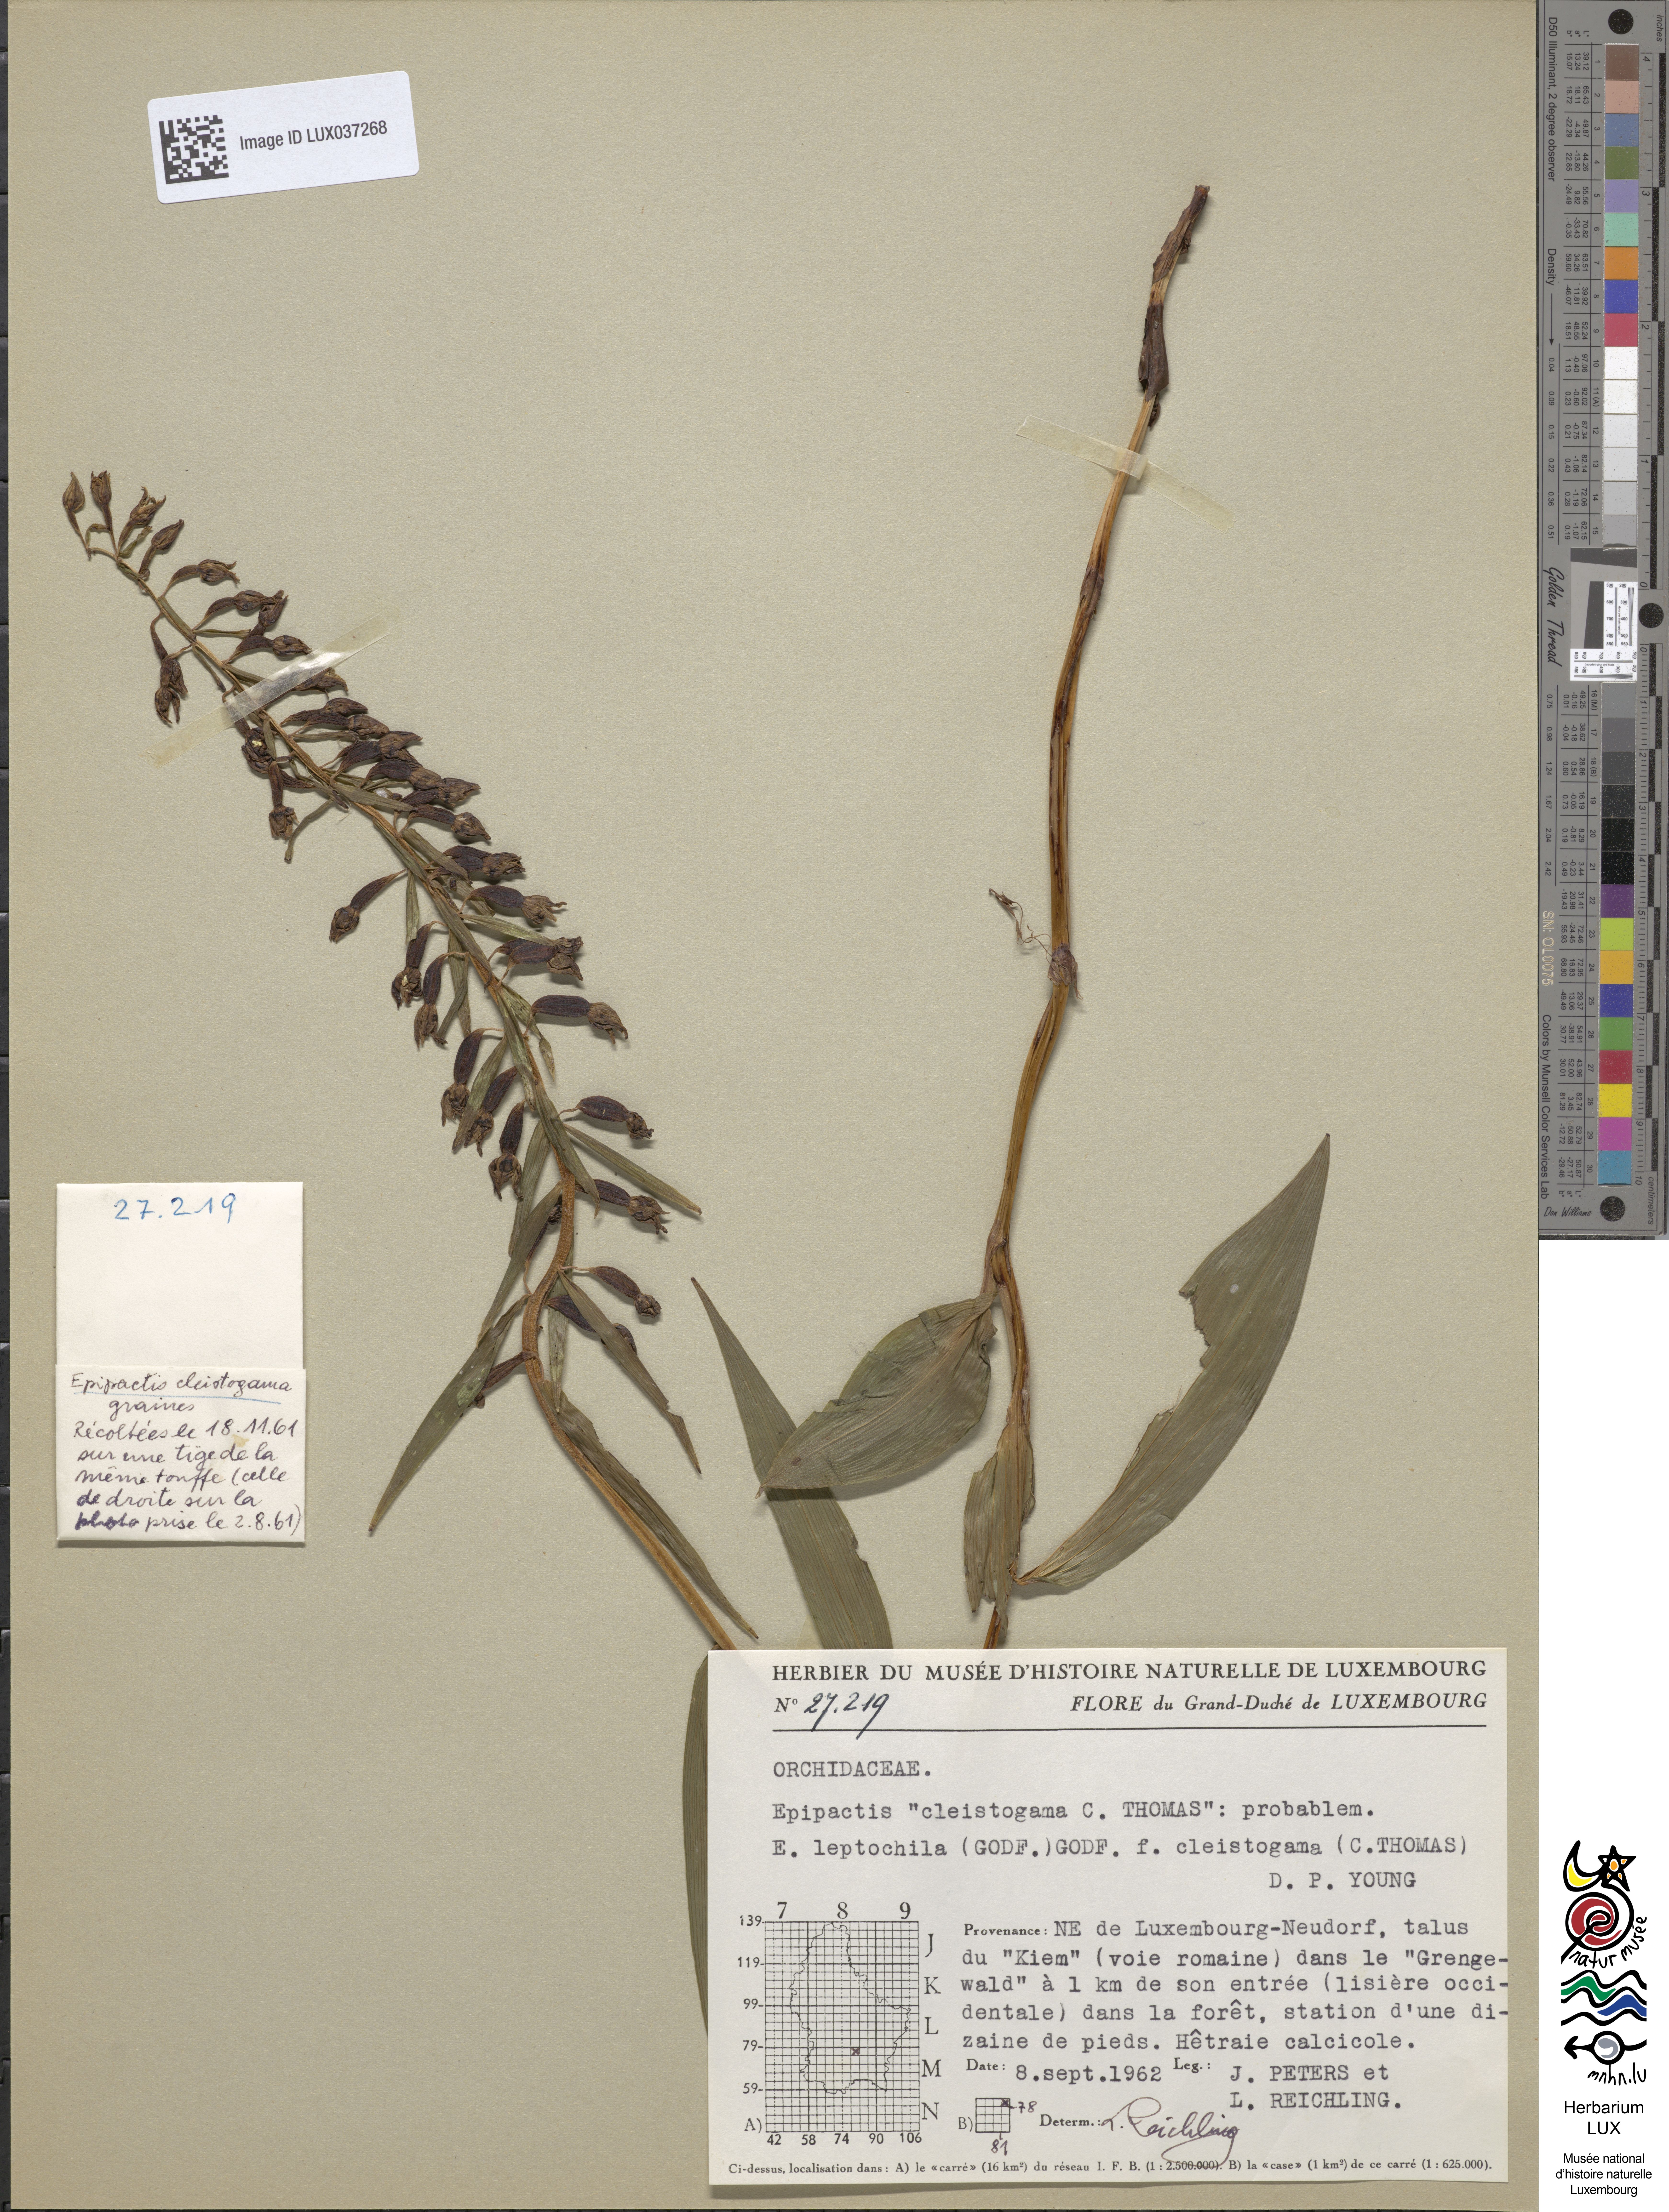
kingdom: Plantae
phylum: Tracheophyta
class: Liliopsida
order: Asparagales
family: Orchidaceae
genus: Epipactis
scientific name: Epipactis leptochila
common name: Narrow-lipped helleborine
